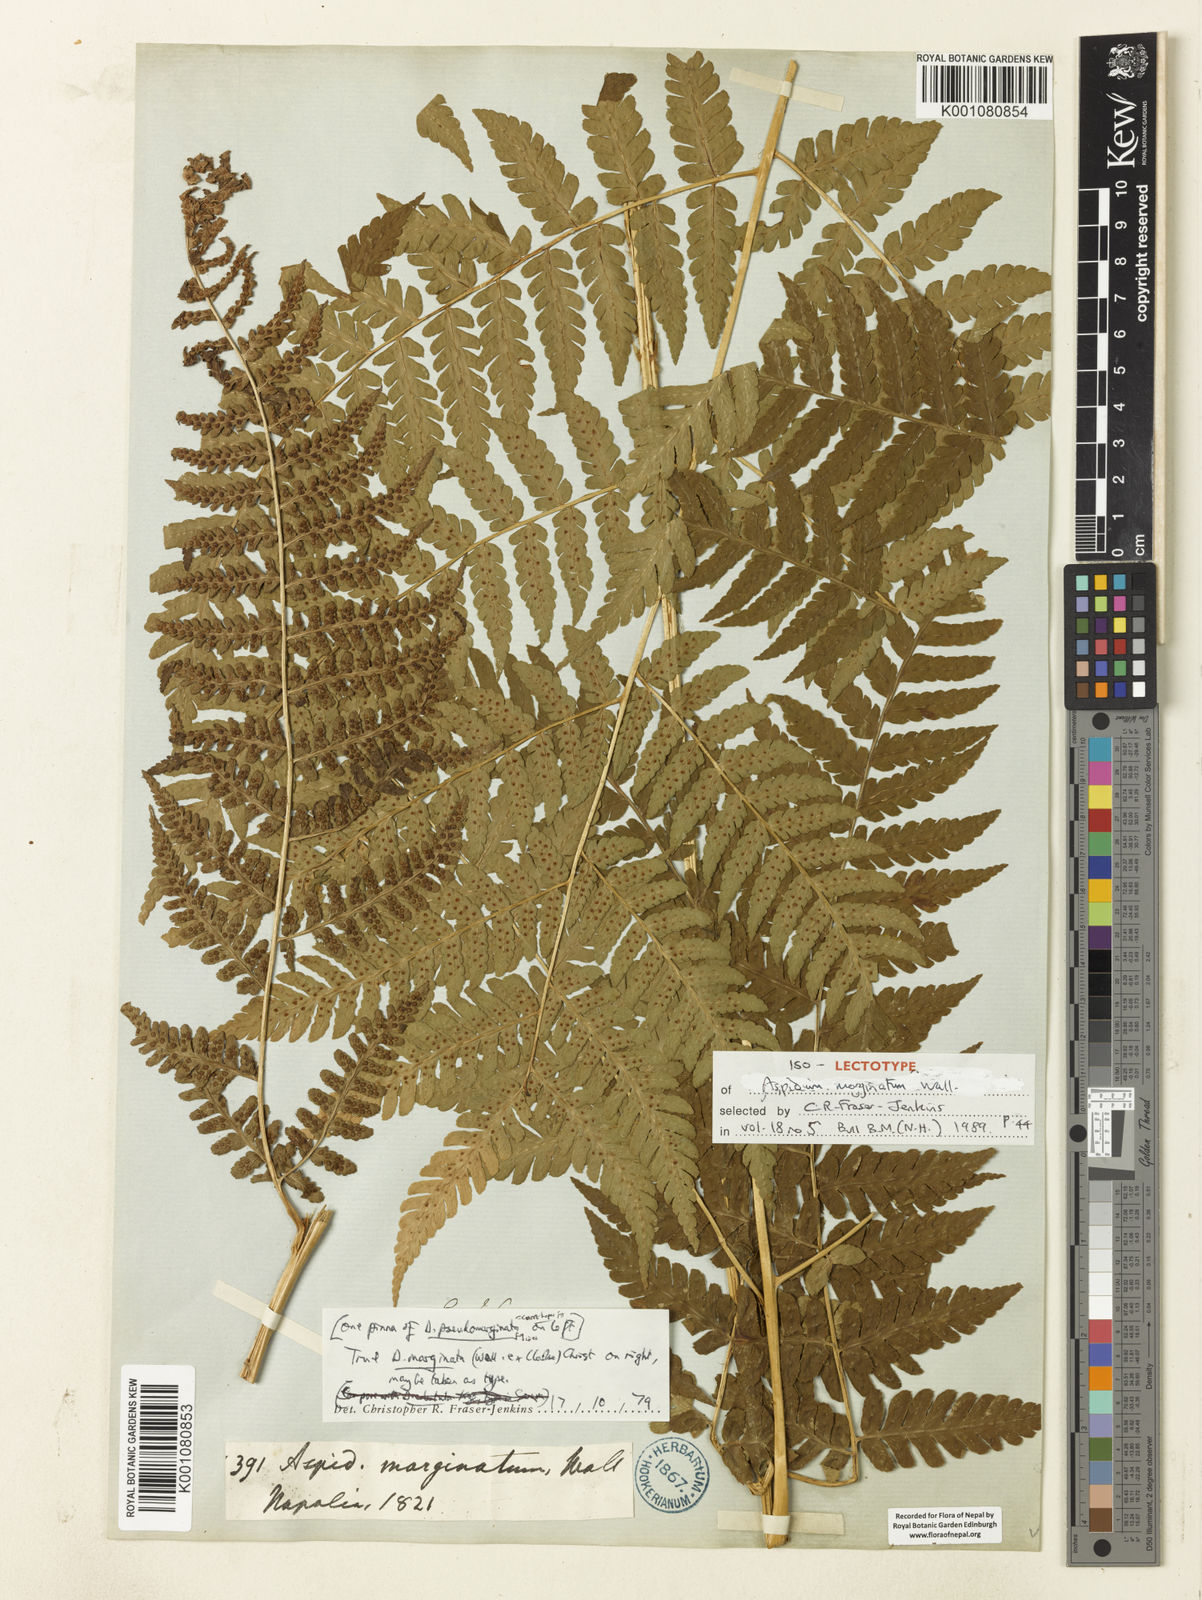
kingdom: Plantae
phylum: Tracheophyta
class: Polypodiopsida
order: Polypodiales
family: Dryopteridaceae
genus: Dryopteris
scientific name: Dryopteris marginata
